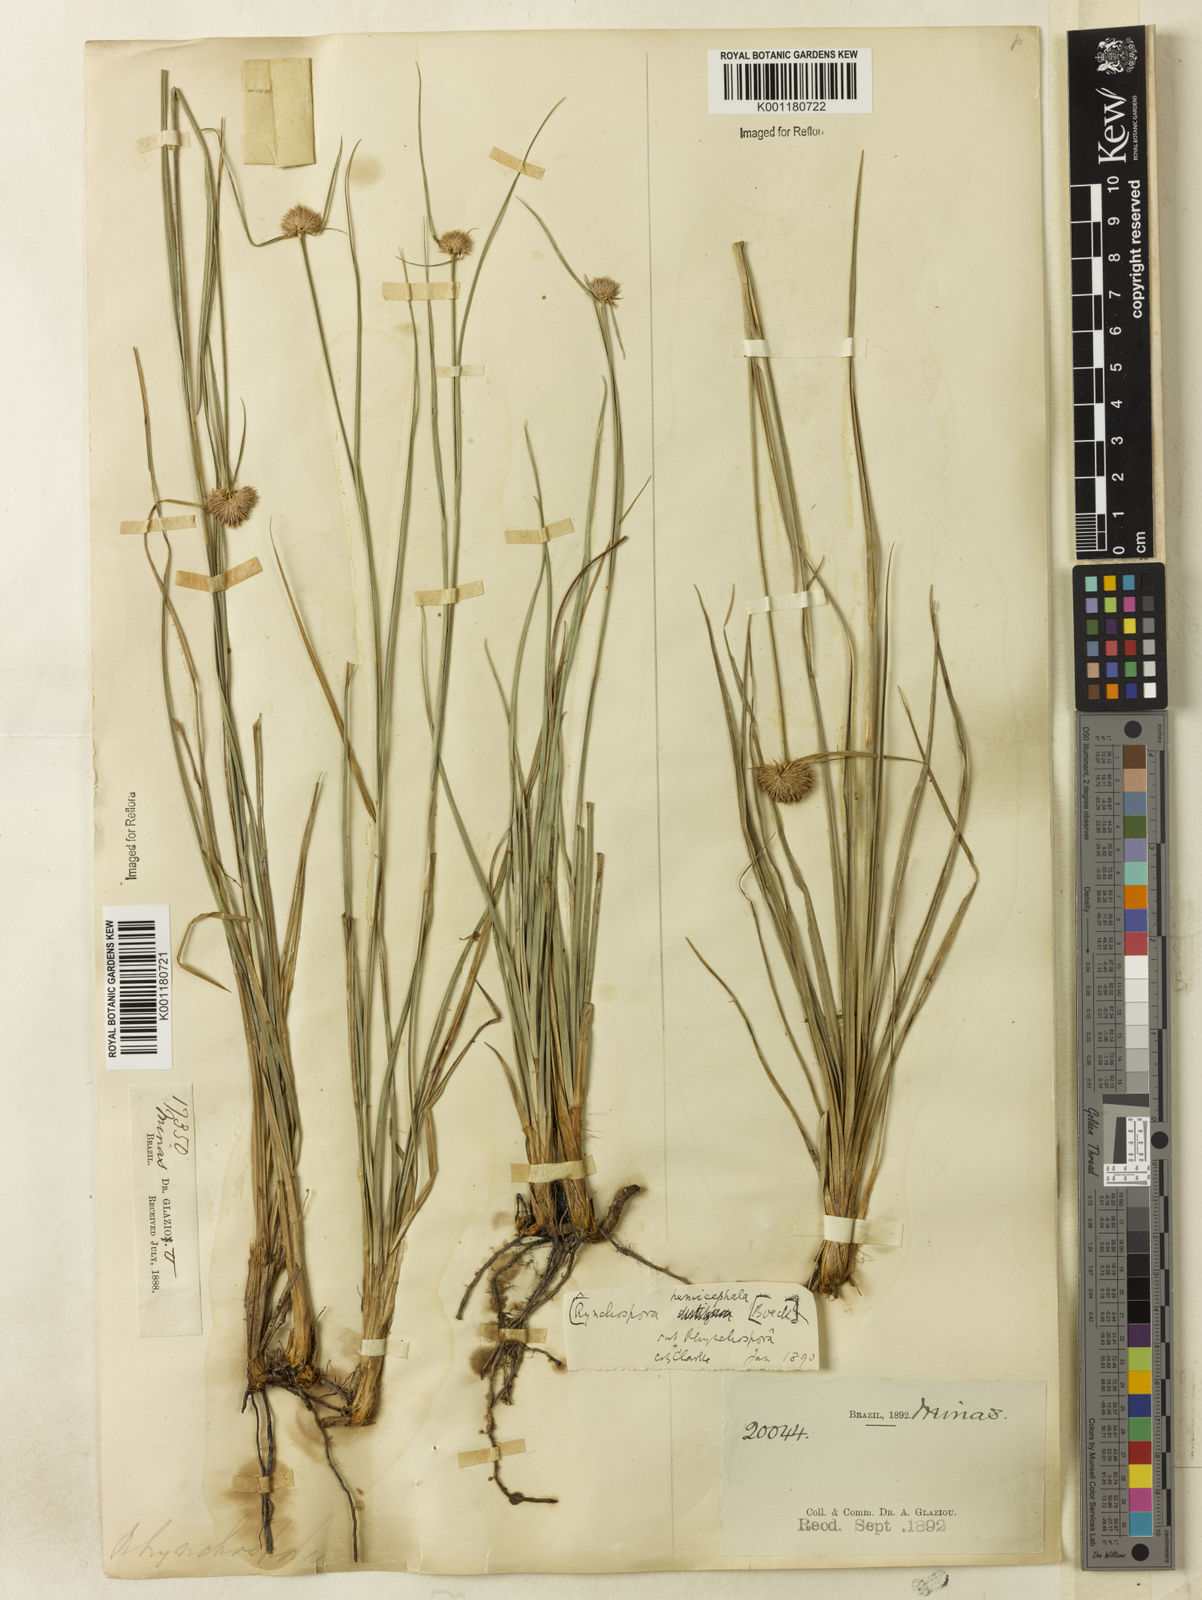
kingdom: Plantae
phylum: Tracheophyta
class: Liliopsida
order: Poales
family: Cyperaceae
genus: Rhynchospora
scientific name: Rhynchospora recurvata
